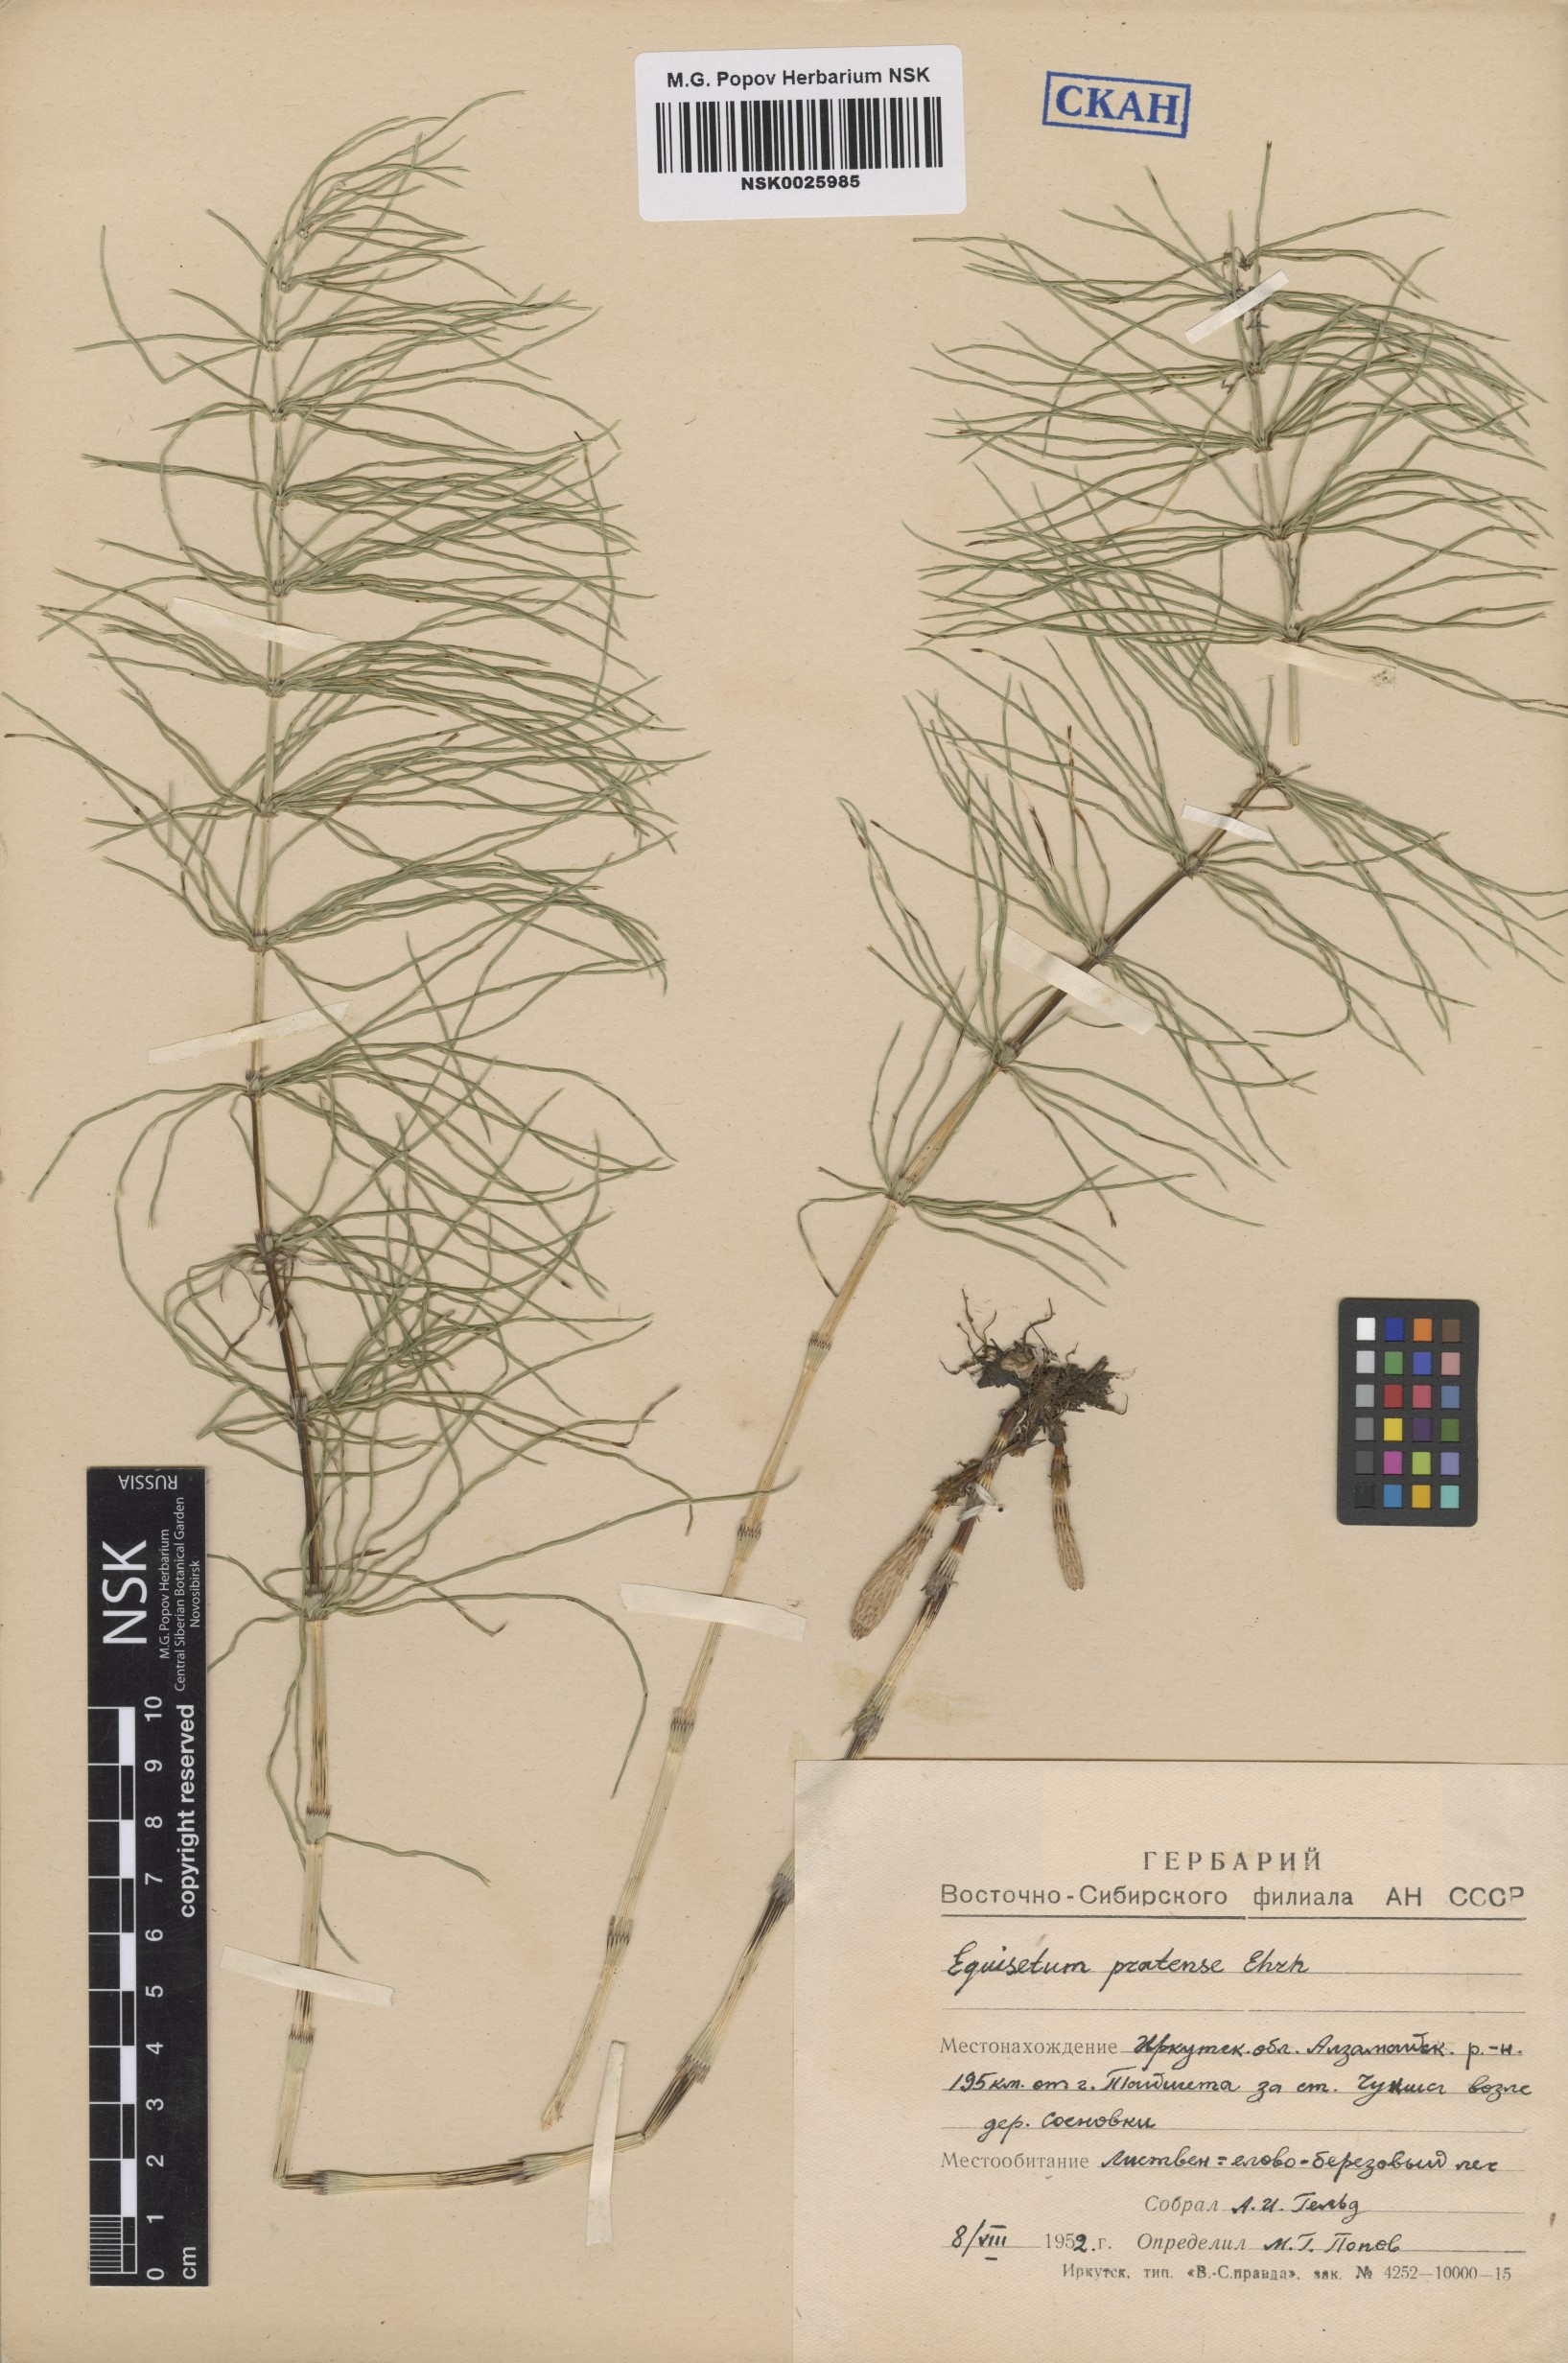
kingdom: Plantae
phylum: Tracheophyta
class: Polypodiopsida
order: Equisetales
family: Equisetaceae
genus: Equisetum
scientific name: Equisetum pratense
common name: Meadow horsetail
